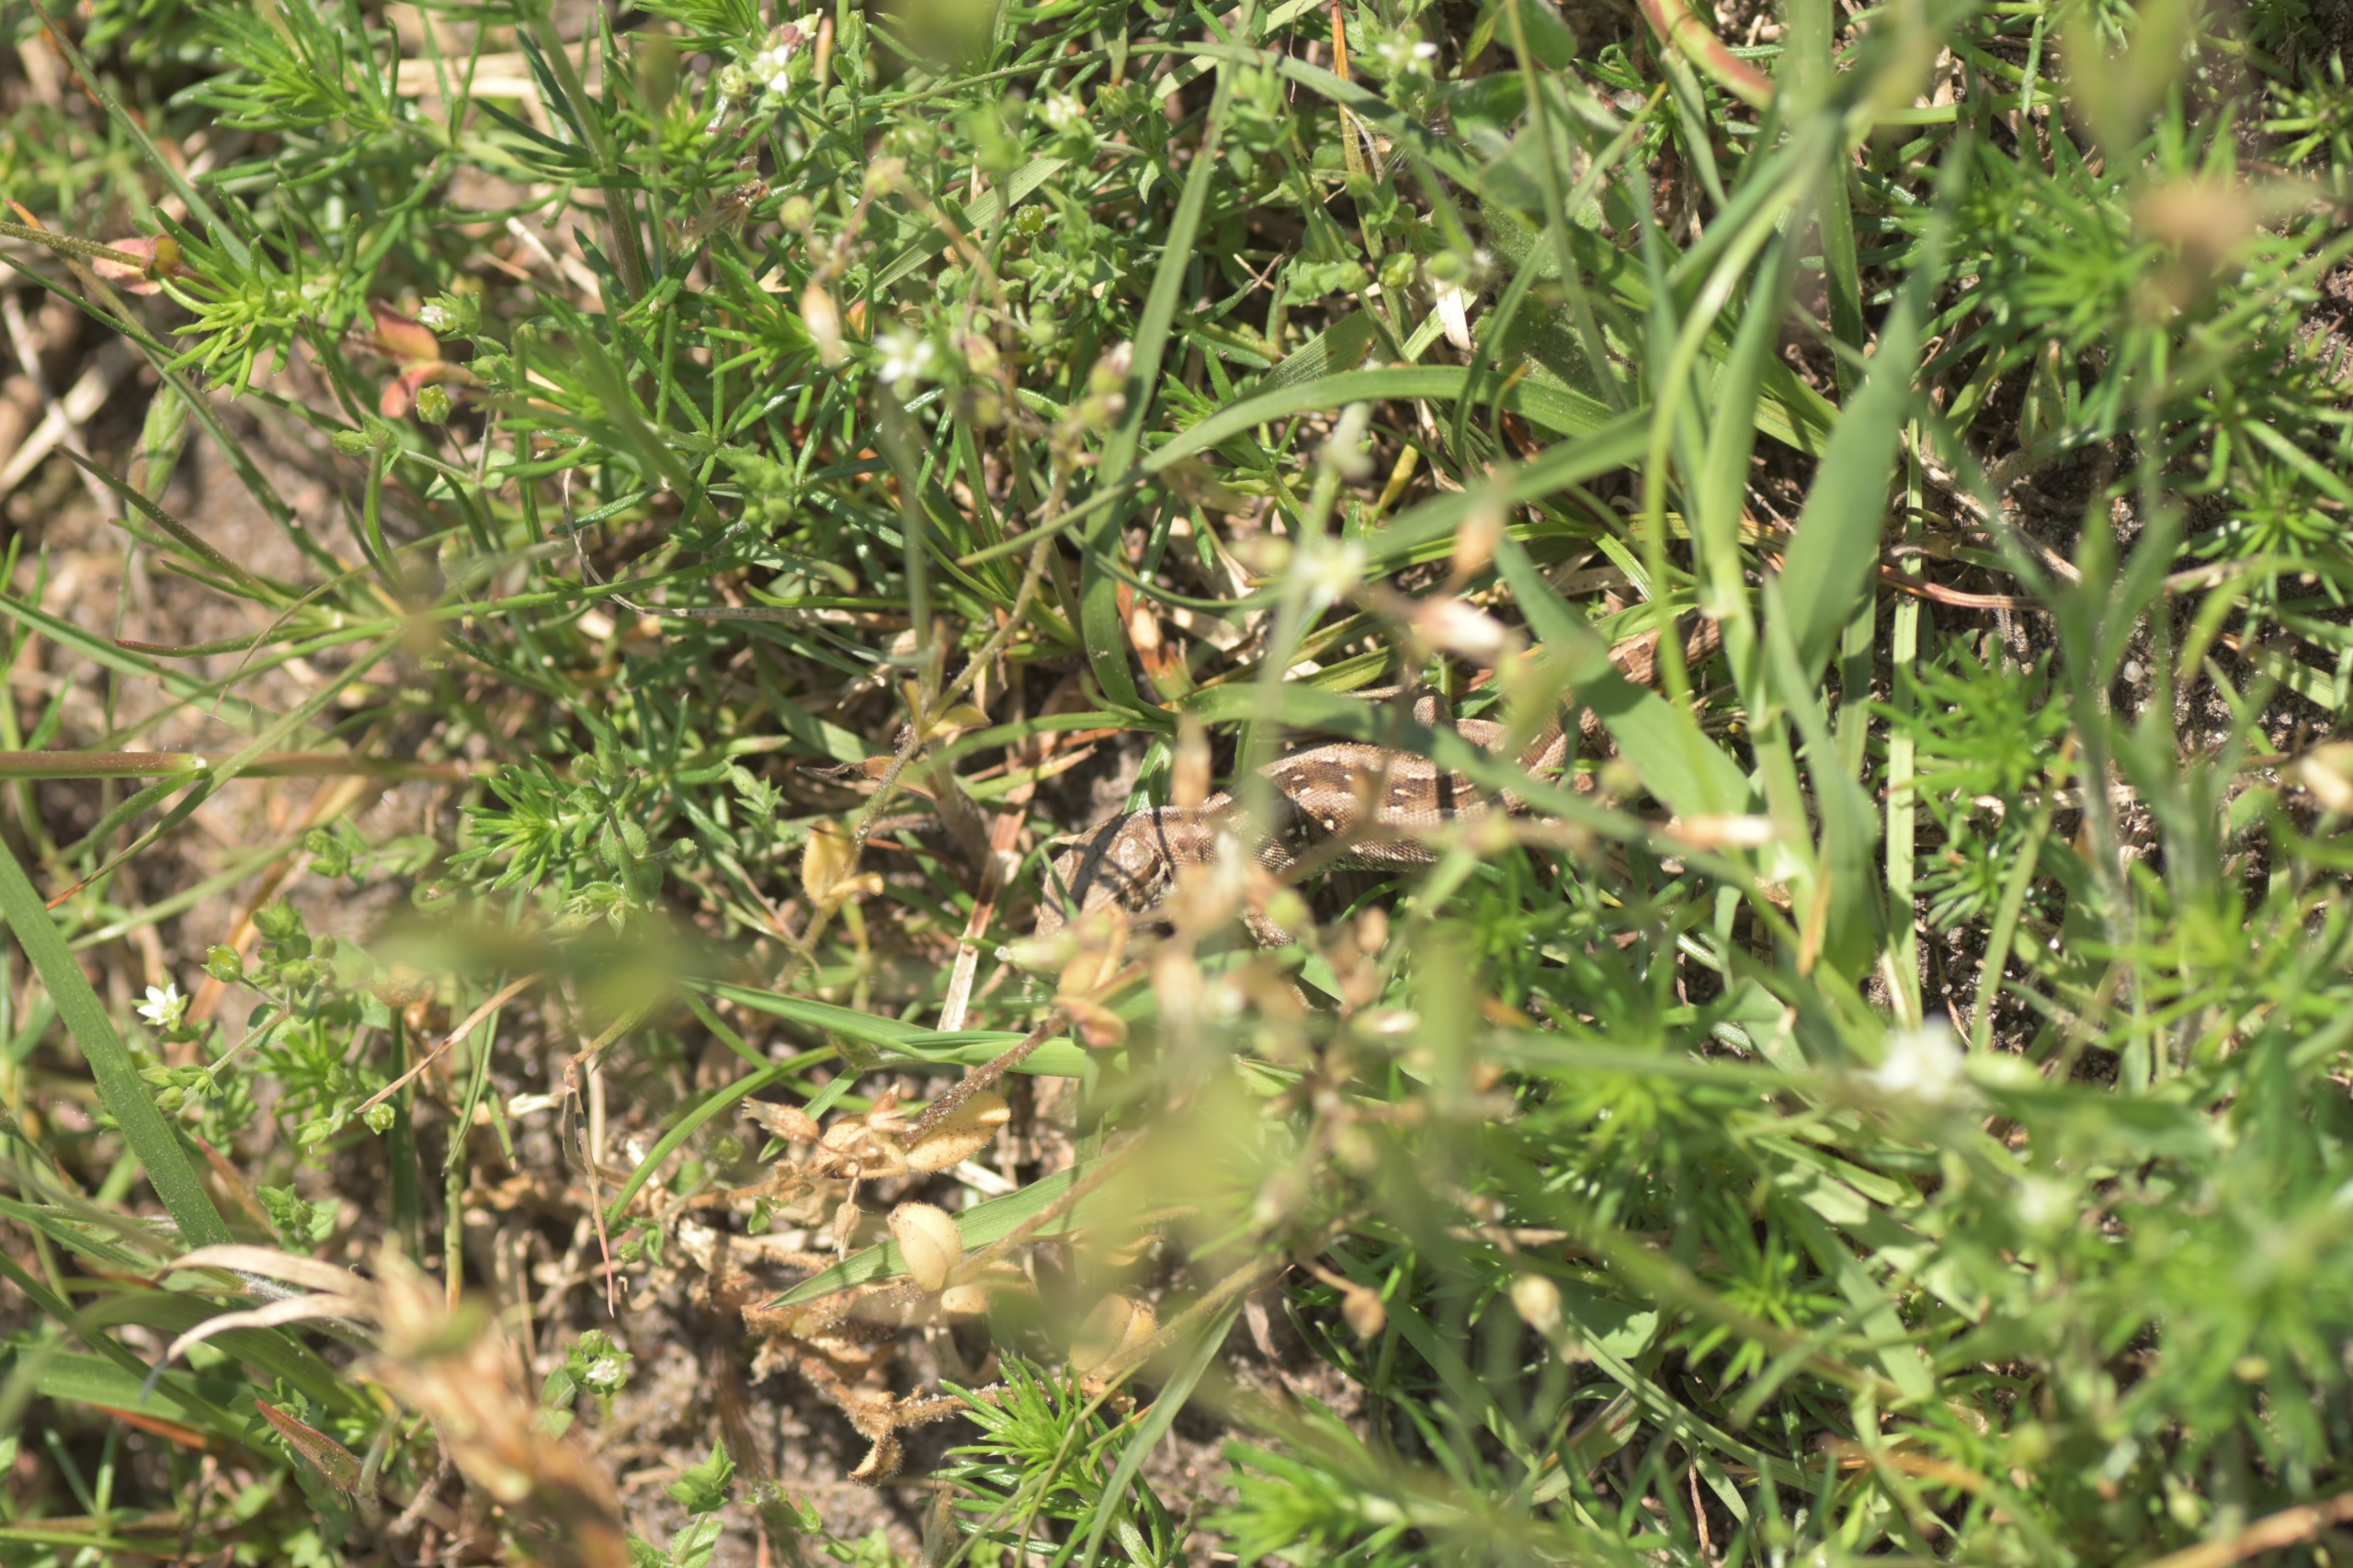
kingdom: Animalia
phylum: Chordata
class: Squamata
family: Lacertidae
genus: Lacerta
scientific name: Lacerta agilis
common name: Markfirben
